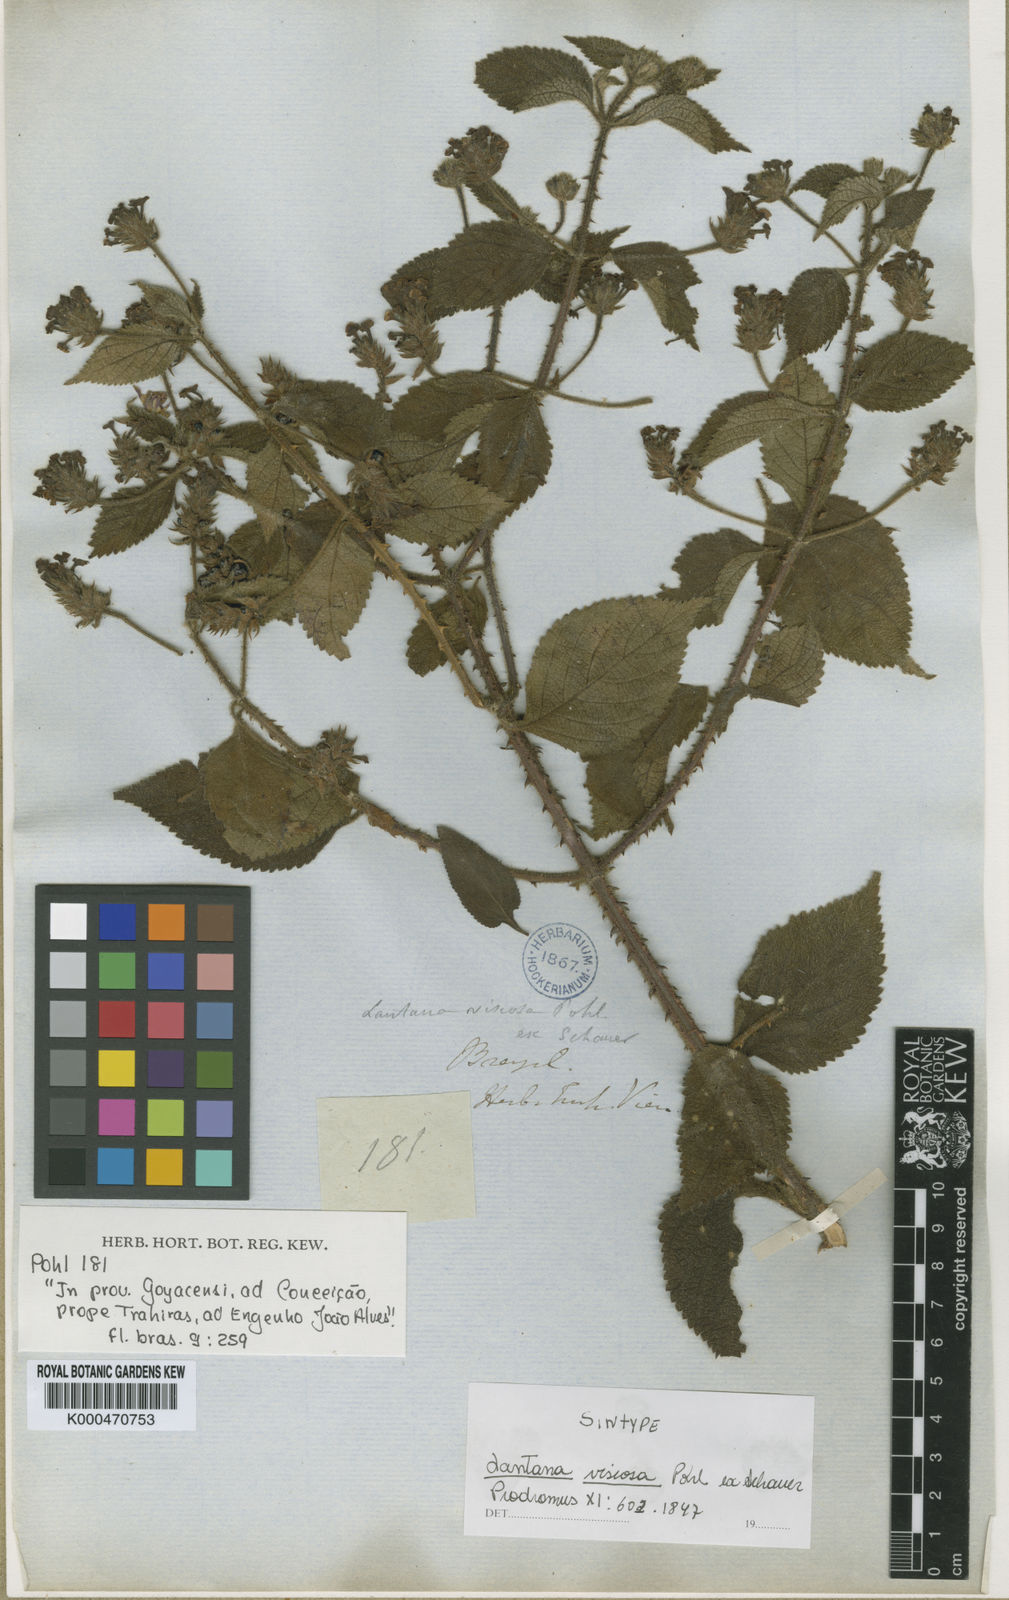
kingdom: Plantae
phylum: Tracheophyta
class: Magnoliopsida
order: Lamiales
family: Verbenaceae
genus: Lantana
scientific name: Lantana viscosa
